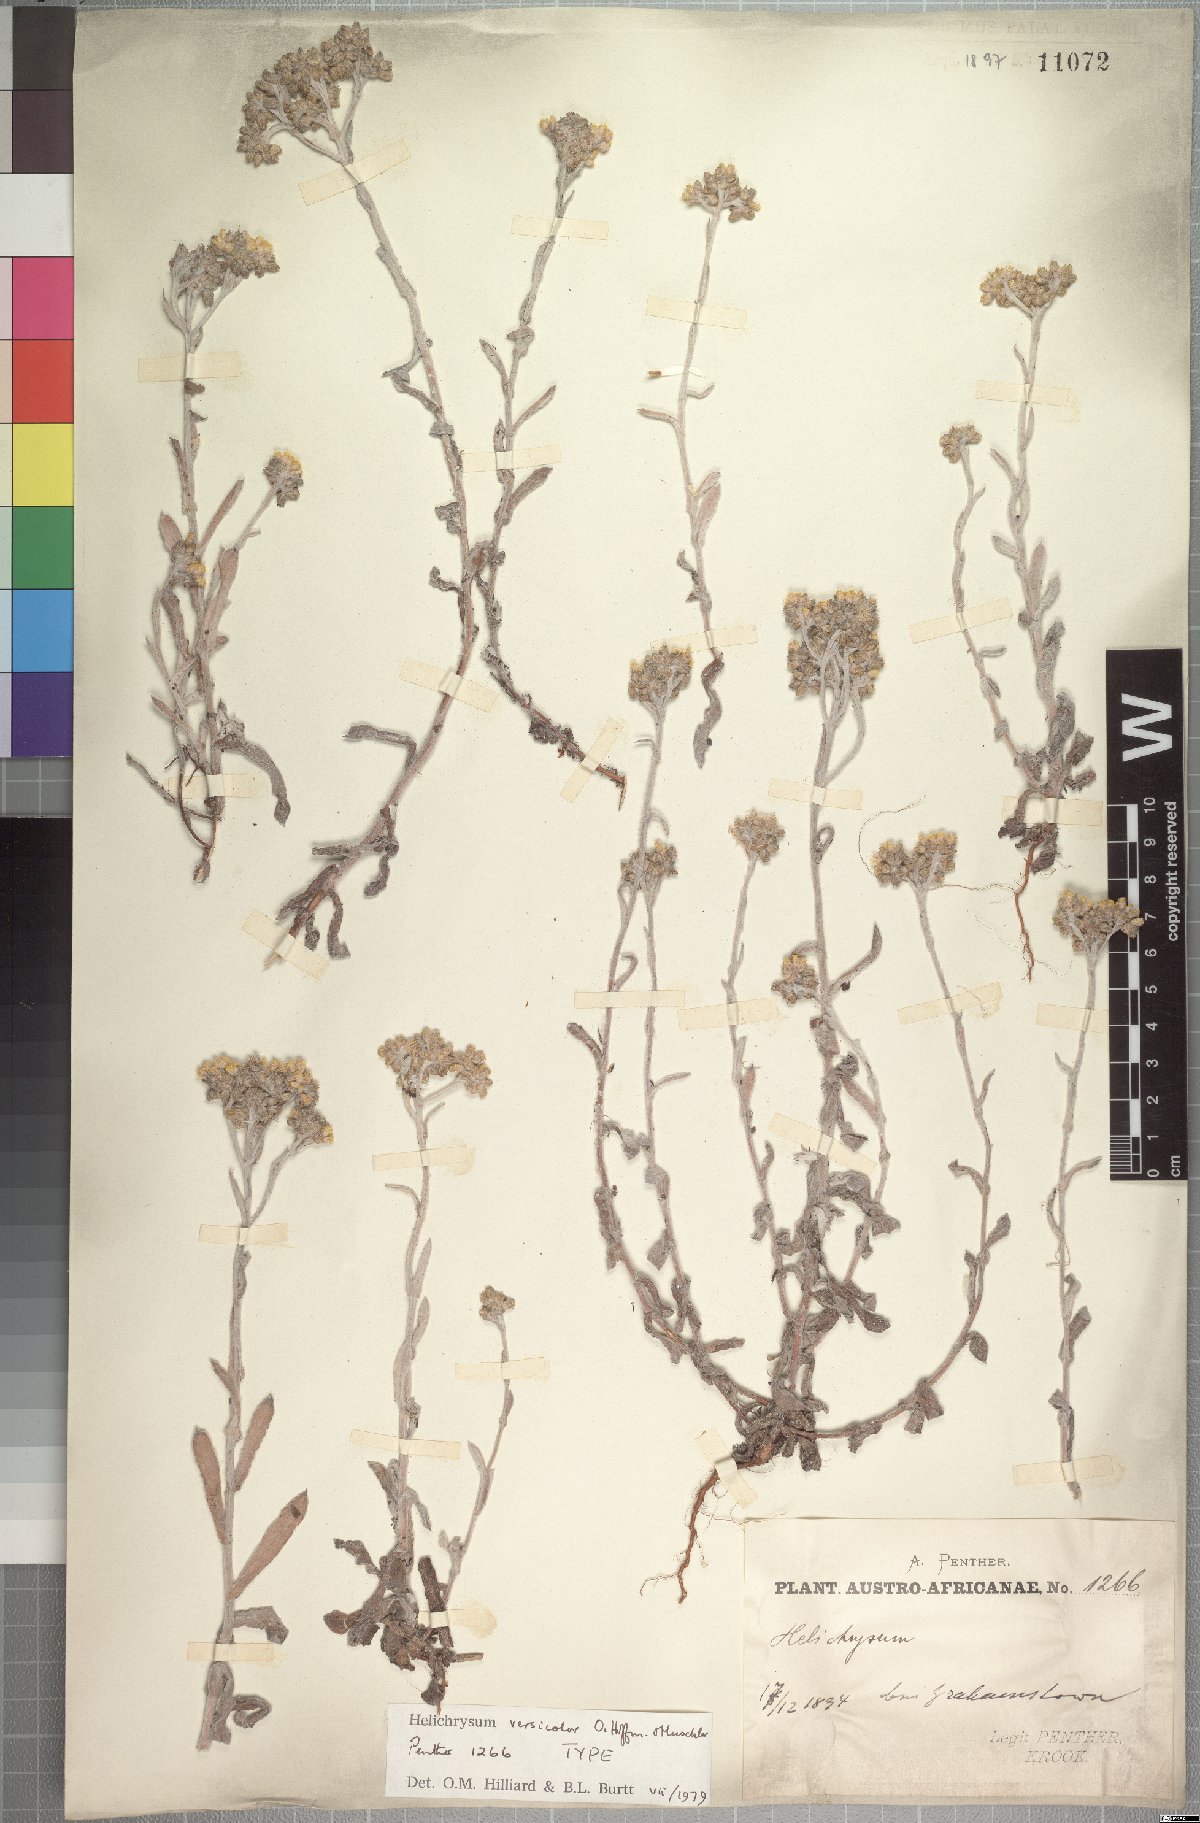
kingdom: Plantae
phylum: Tracheophyta
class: Magnoliopsida
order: Asterales
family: Asteraceae
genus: Helichrysum
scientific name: Helichrysum versicolor
